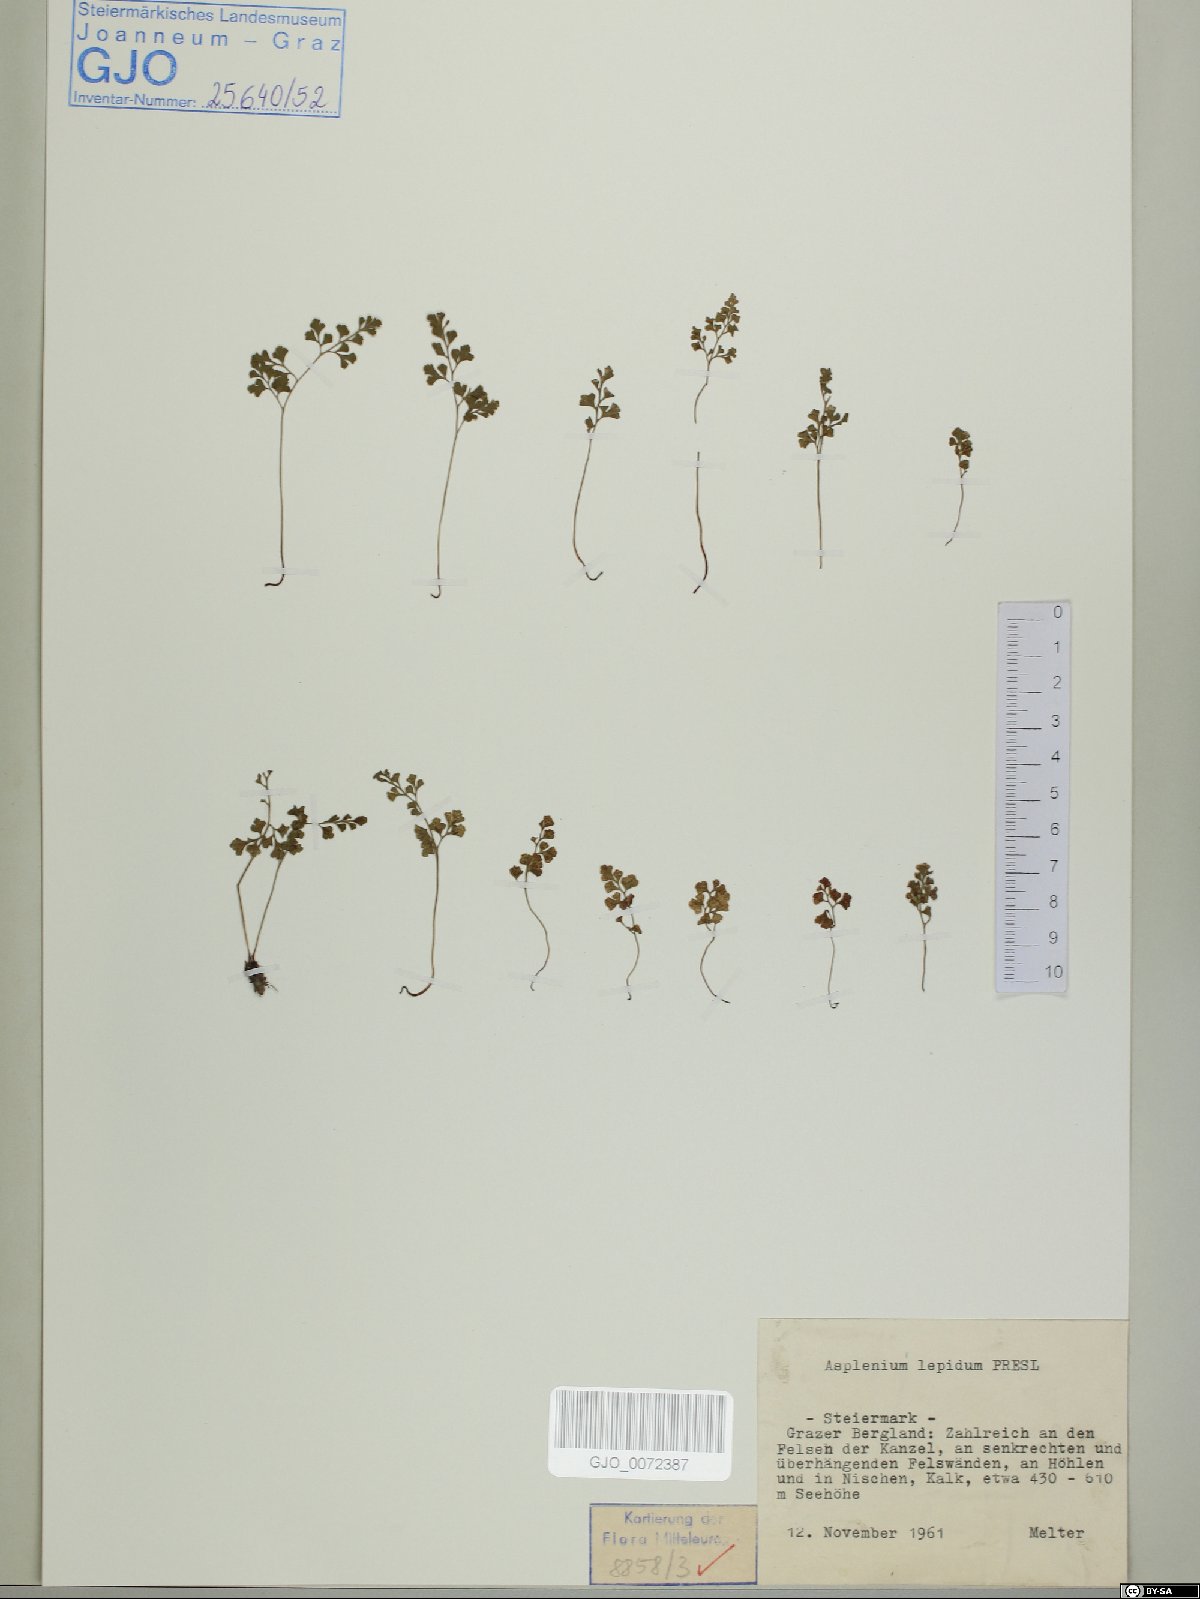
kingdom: Plantae
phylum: Tracheophyta
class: Polypodiopsida
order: Polypodiales
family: Aspleniaceae
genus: Asplenium
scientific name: Asplenium lepidum
